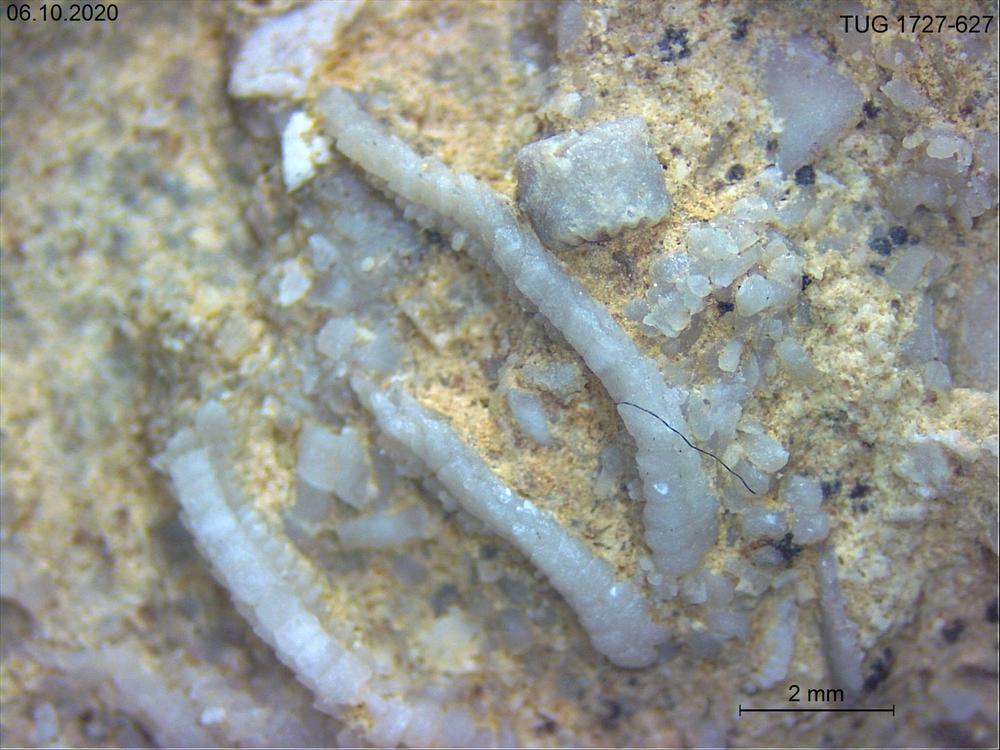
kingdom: Animalia
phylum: Echinodermata
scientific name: Echinodermata
